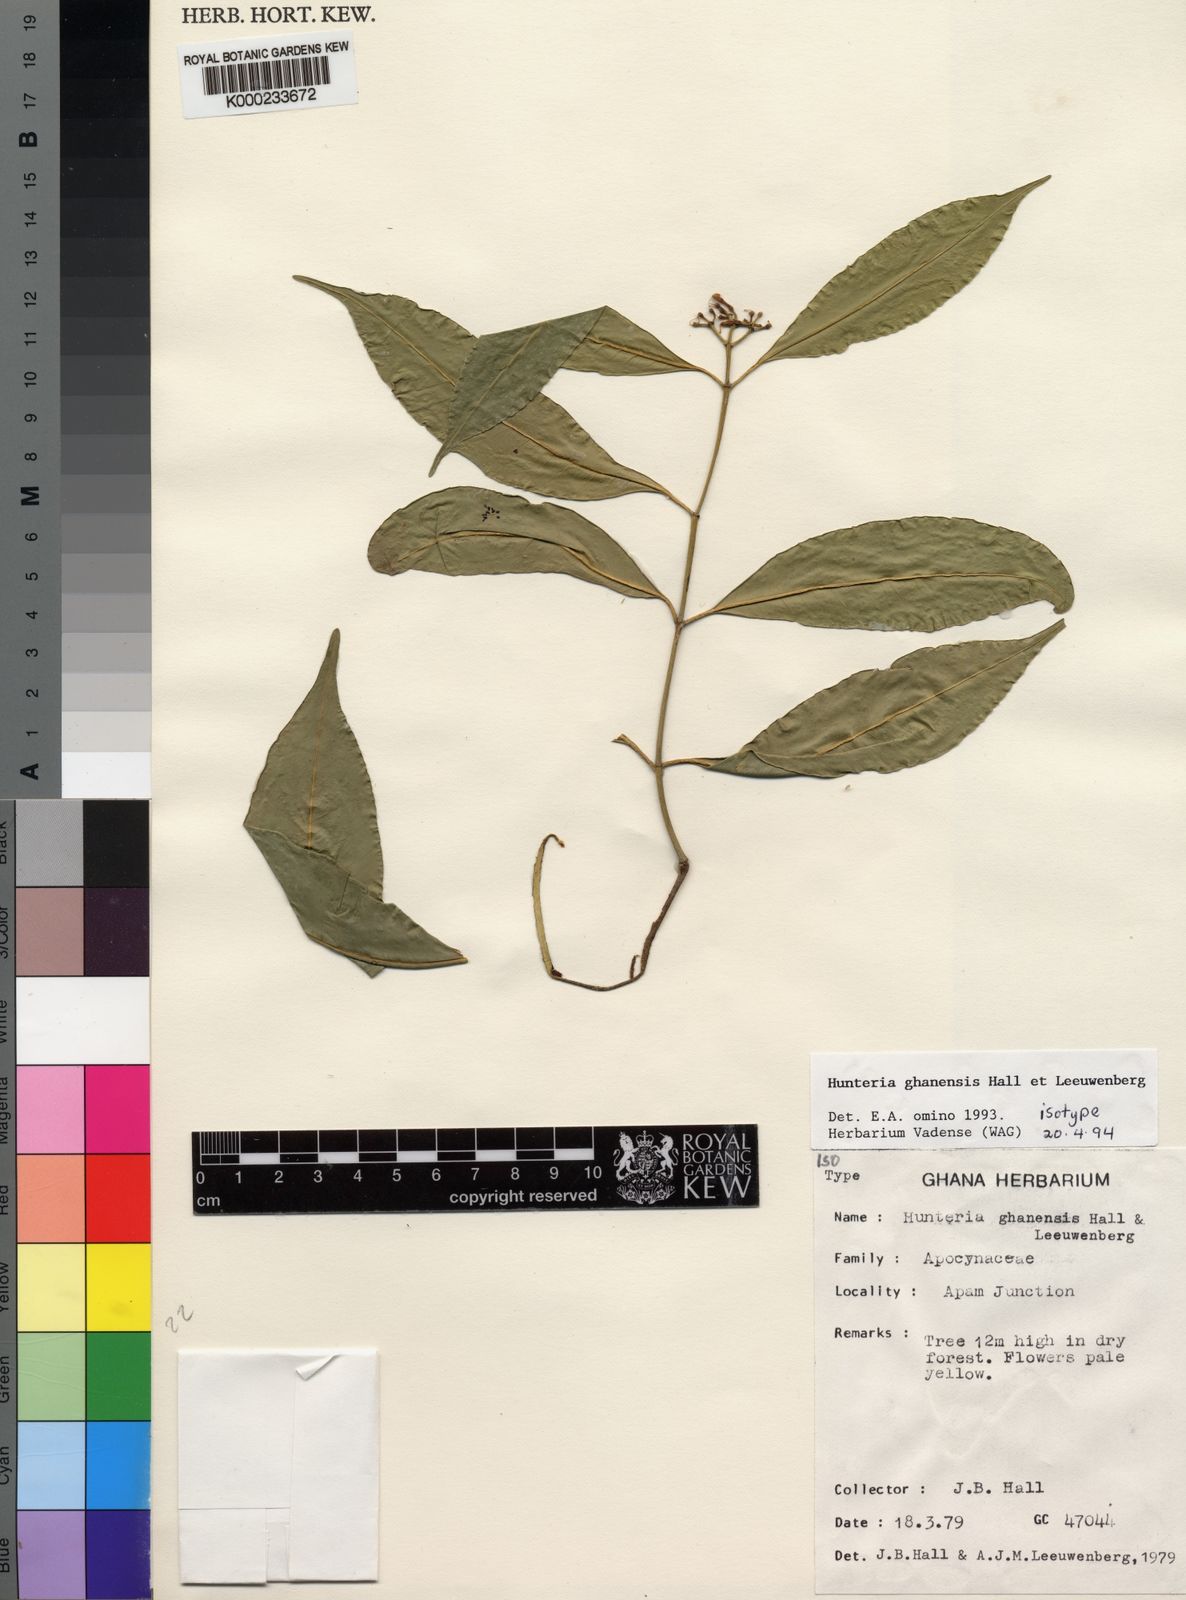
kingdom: Plantae
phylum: Tracheophyta
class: Magnoliopsida
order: Gentianales
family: Apocynaceae
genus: Hunteria
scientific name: Hunteria ghanensis
